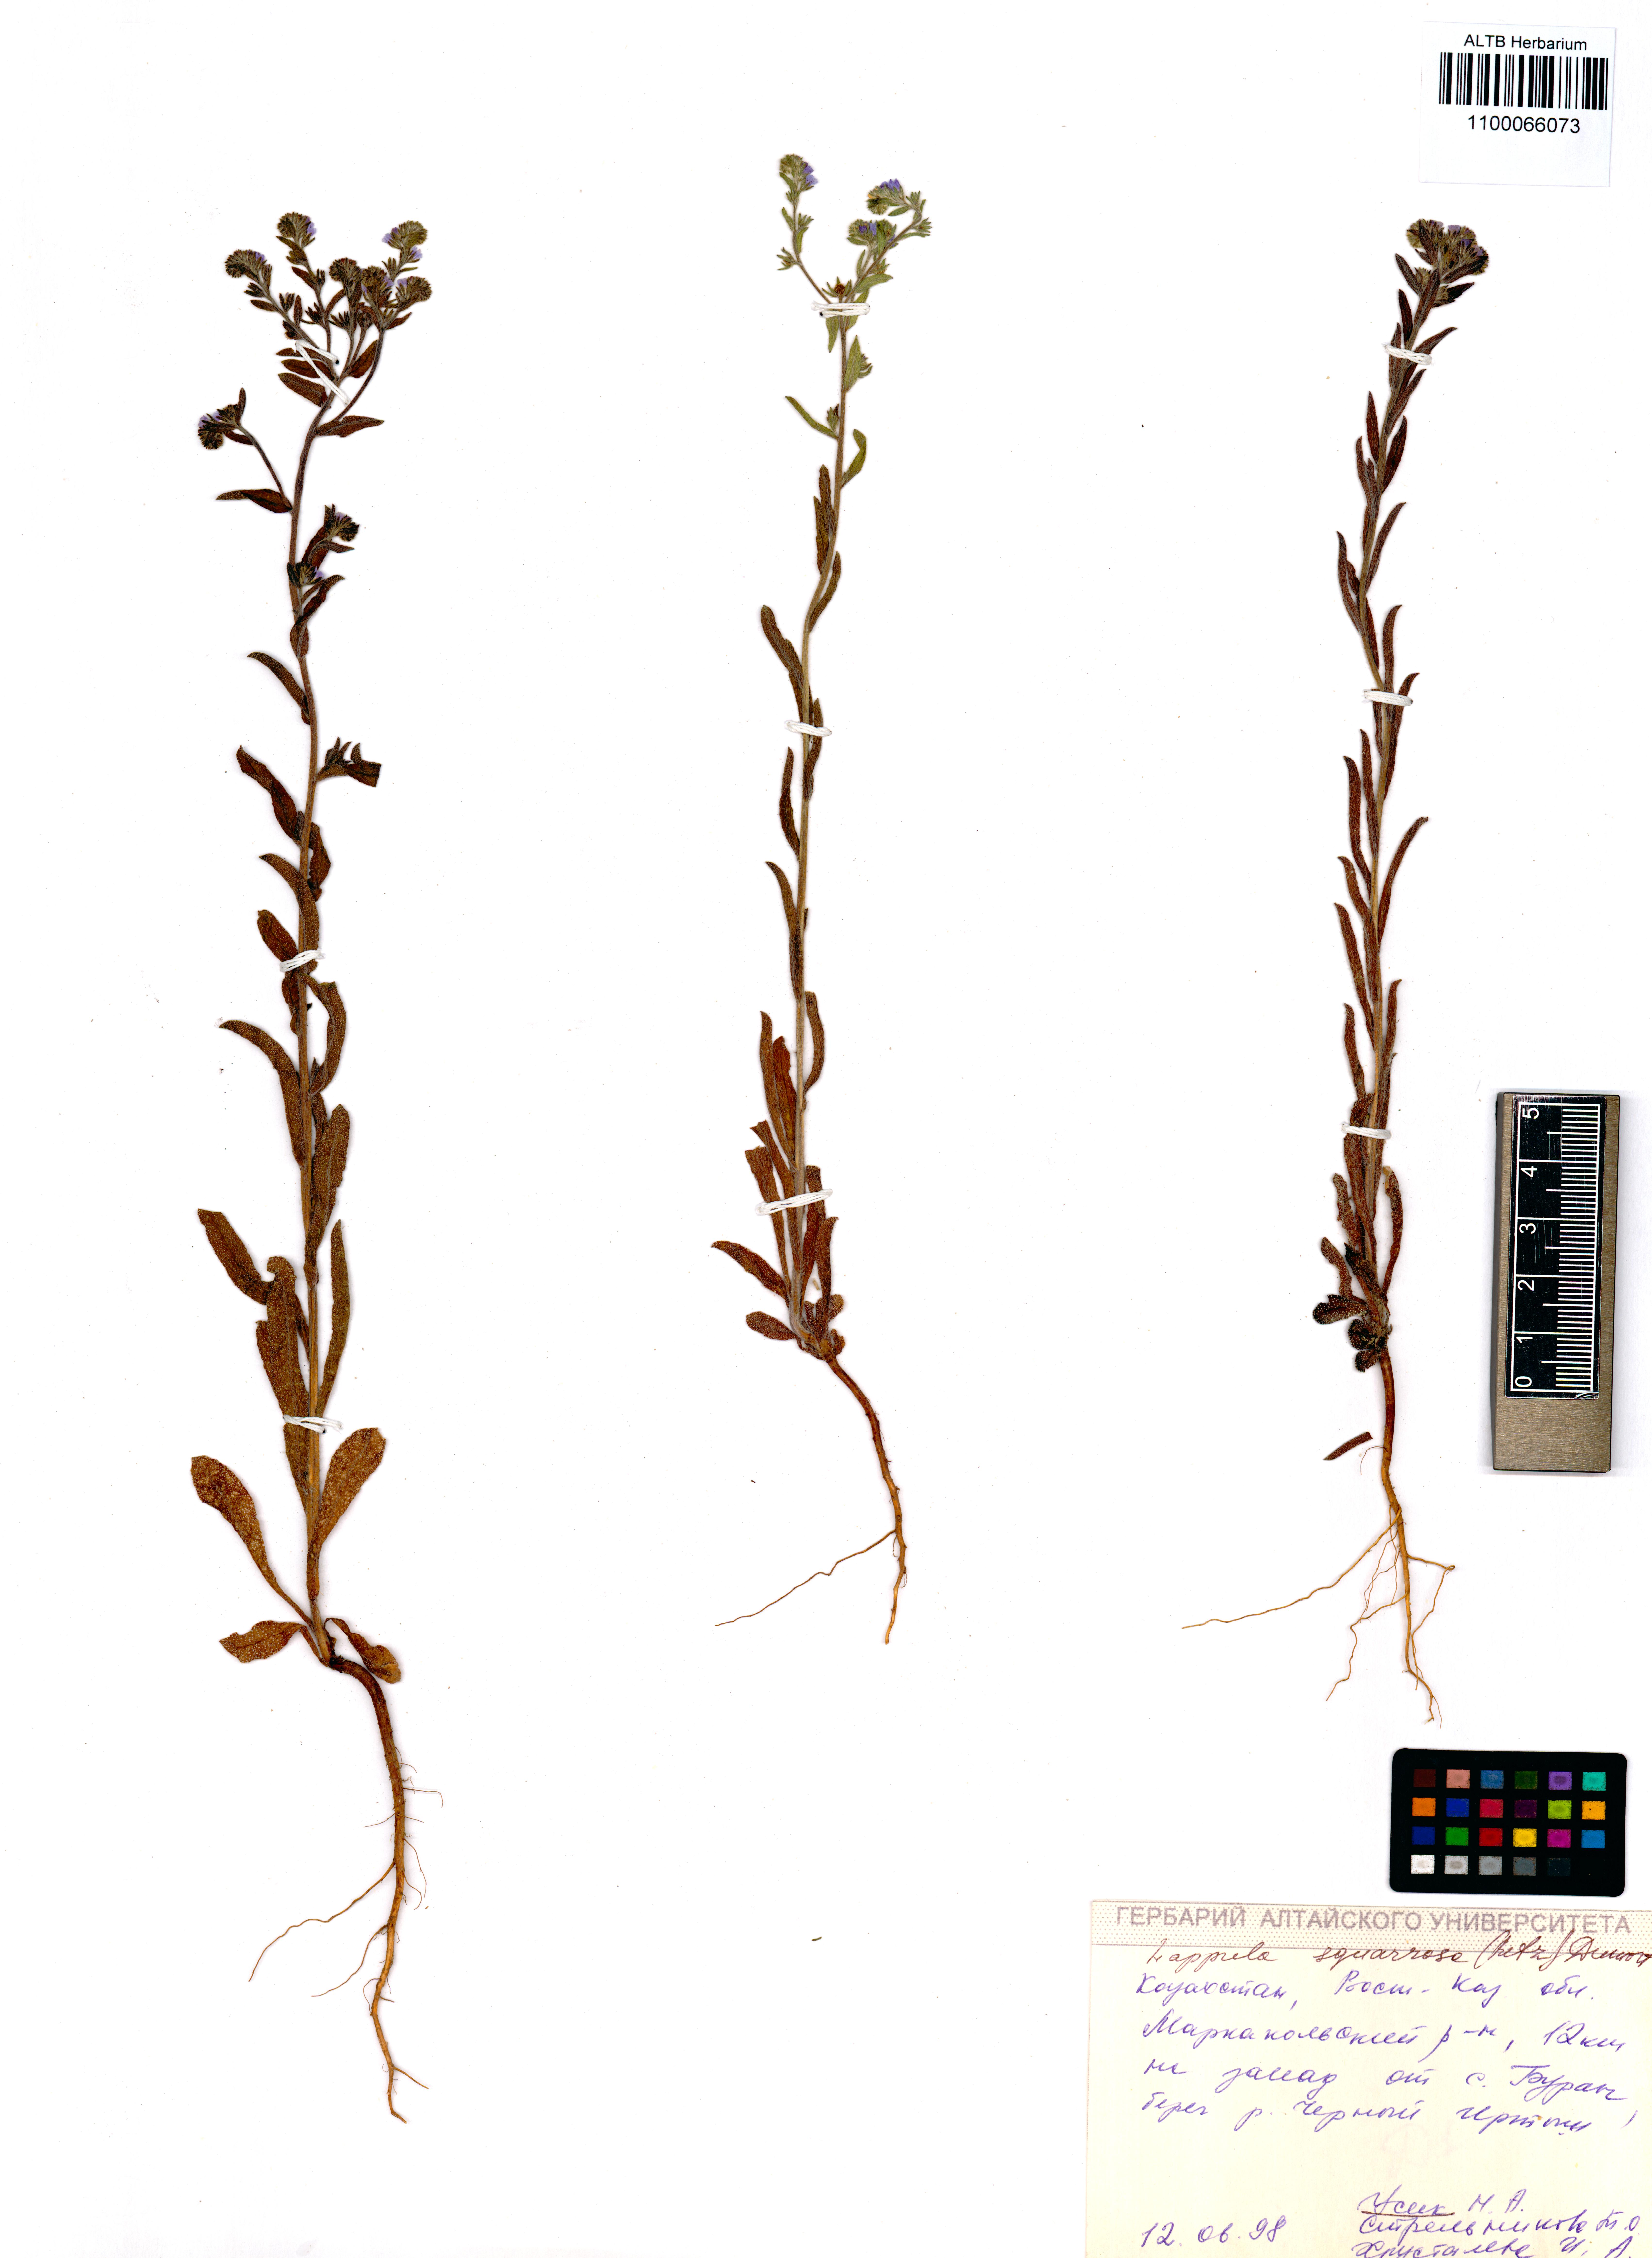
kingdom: Plantae
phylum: Tracheophyta
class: Magnoliopsida
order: Boraginales
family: Boraginaceae
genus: Lappula
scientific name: Lappula squarrosa
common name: European stickseed
